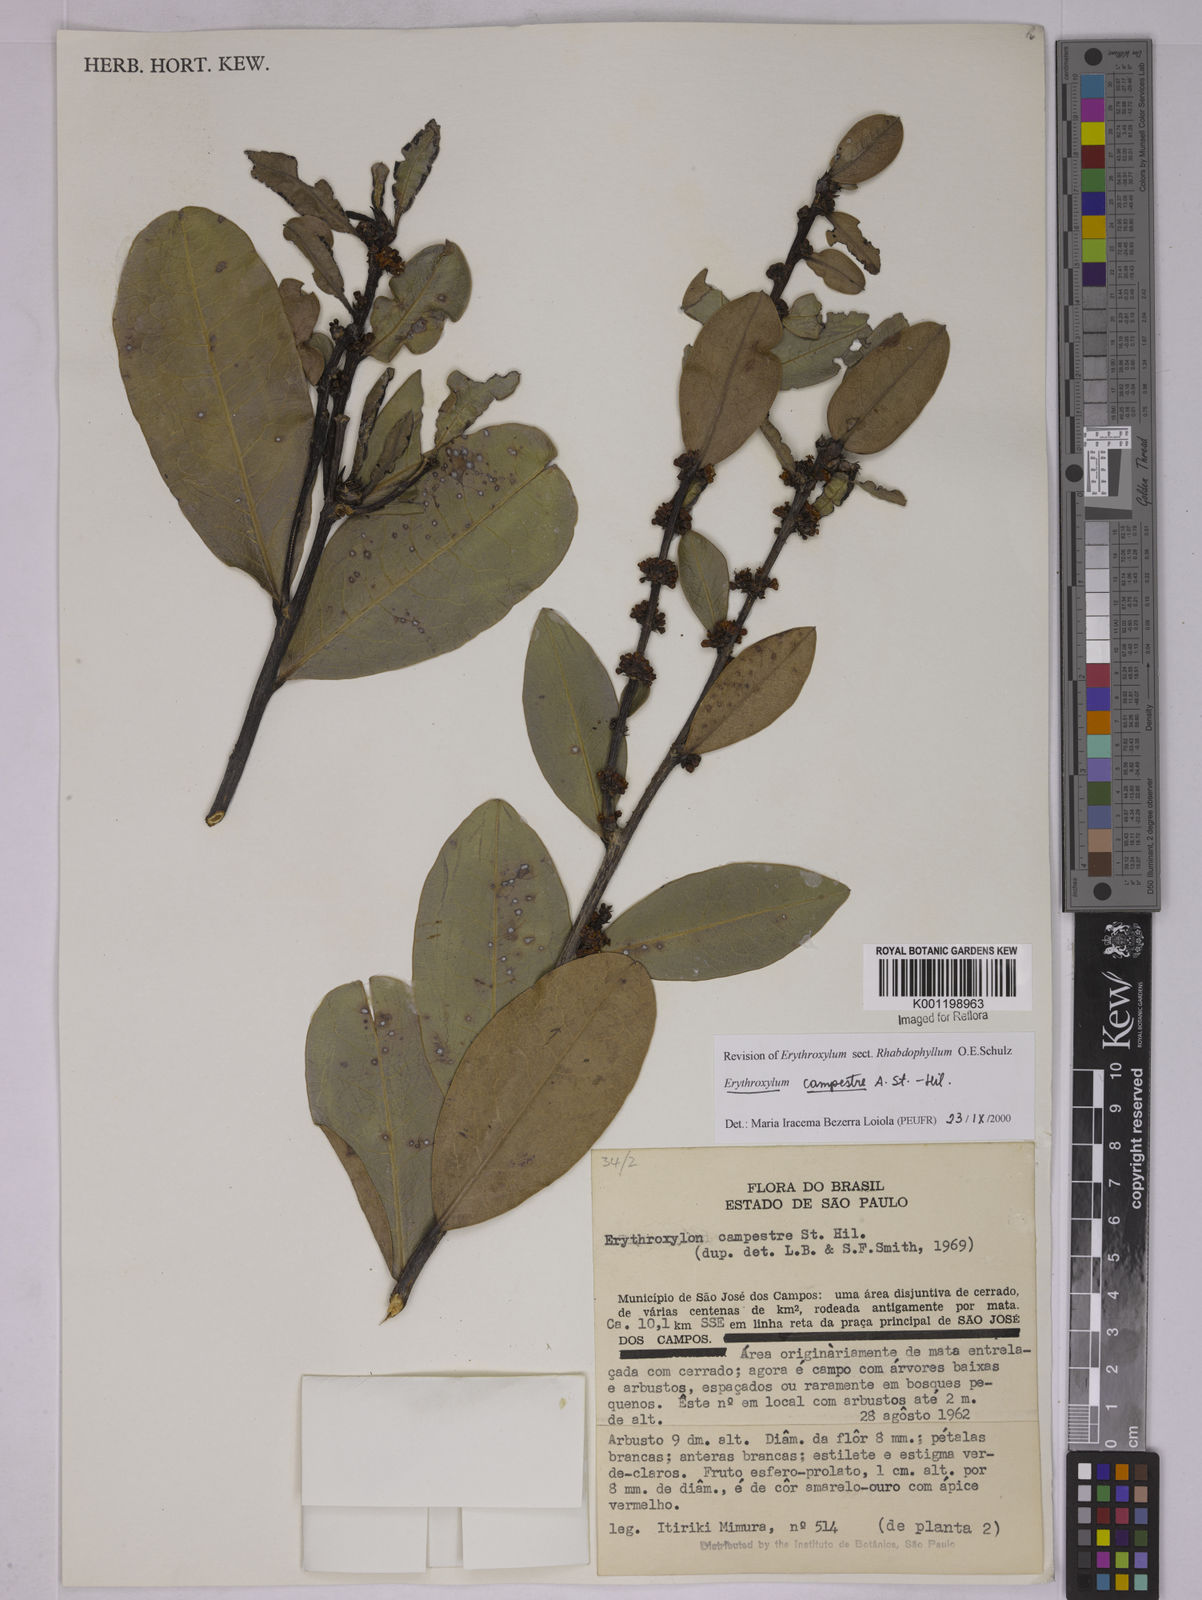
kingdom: Plantae
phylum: Tracheophyta
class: Magnoliopsida
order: Malpighiales
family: Erythroxylaceae
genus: Erythroxylum
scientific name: Erythroxylum campestre
